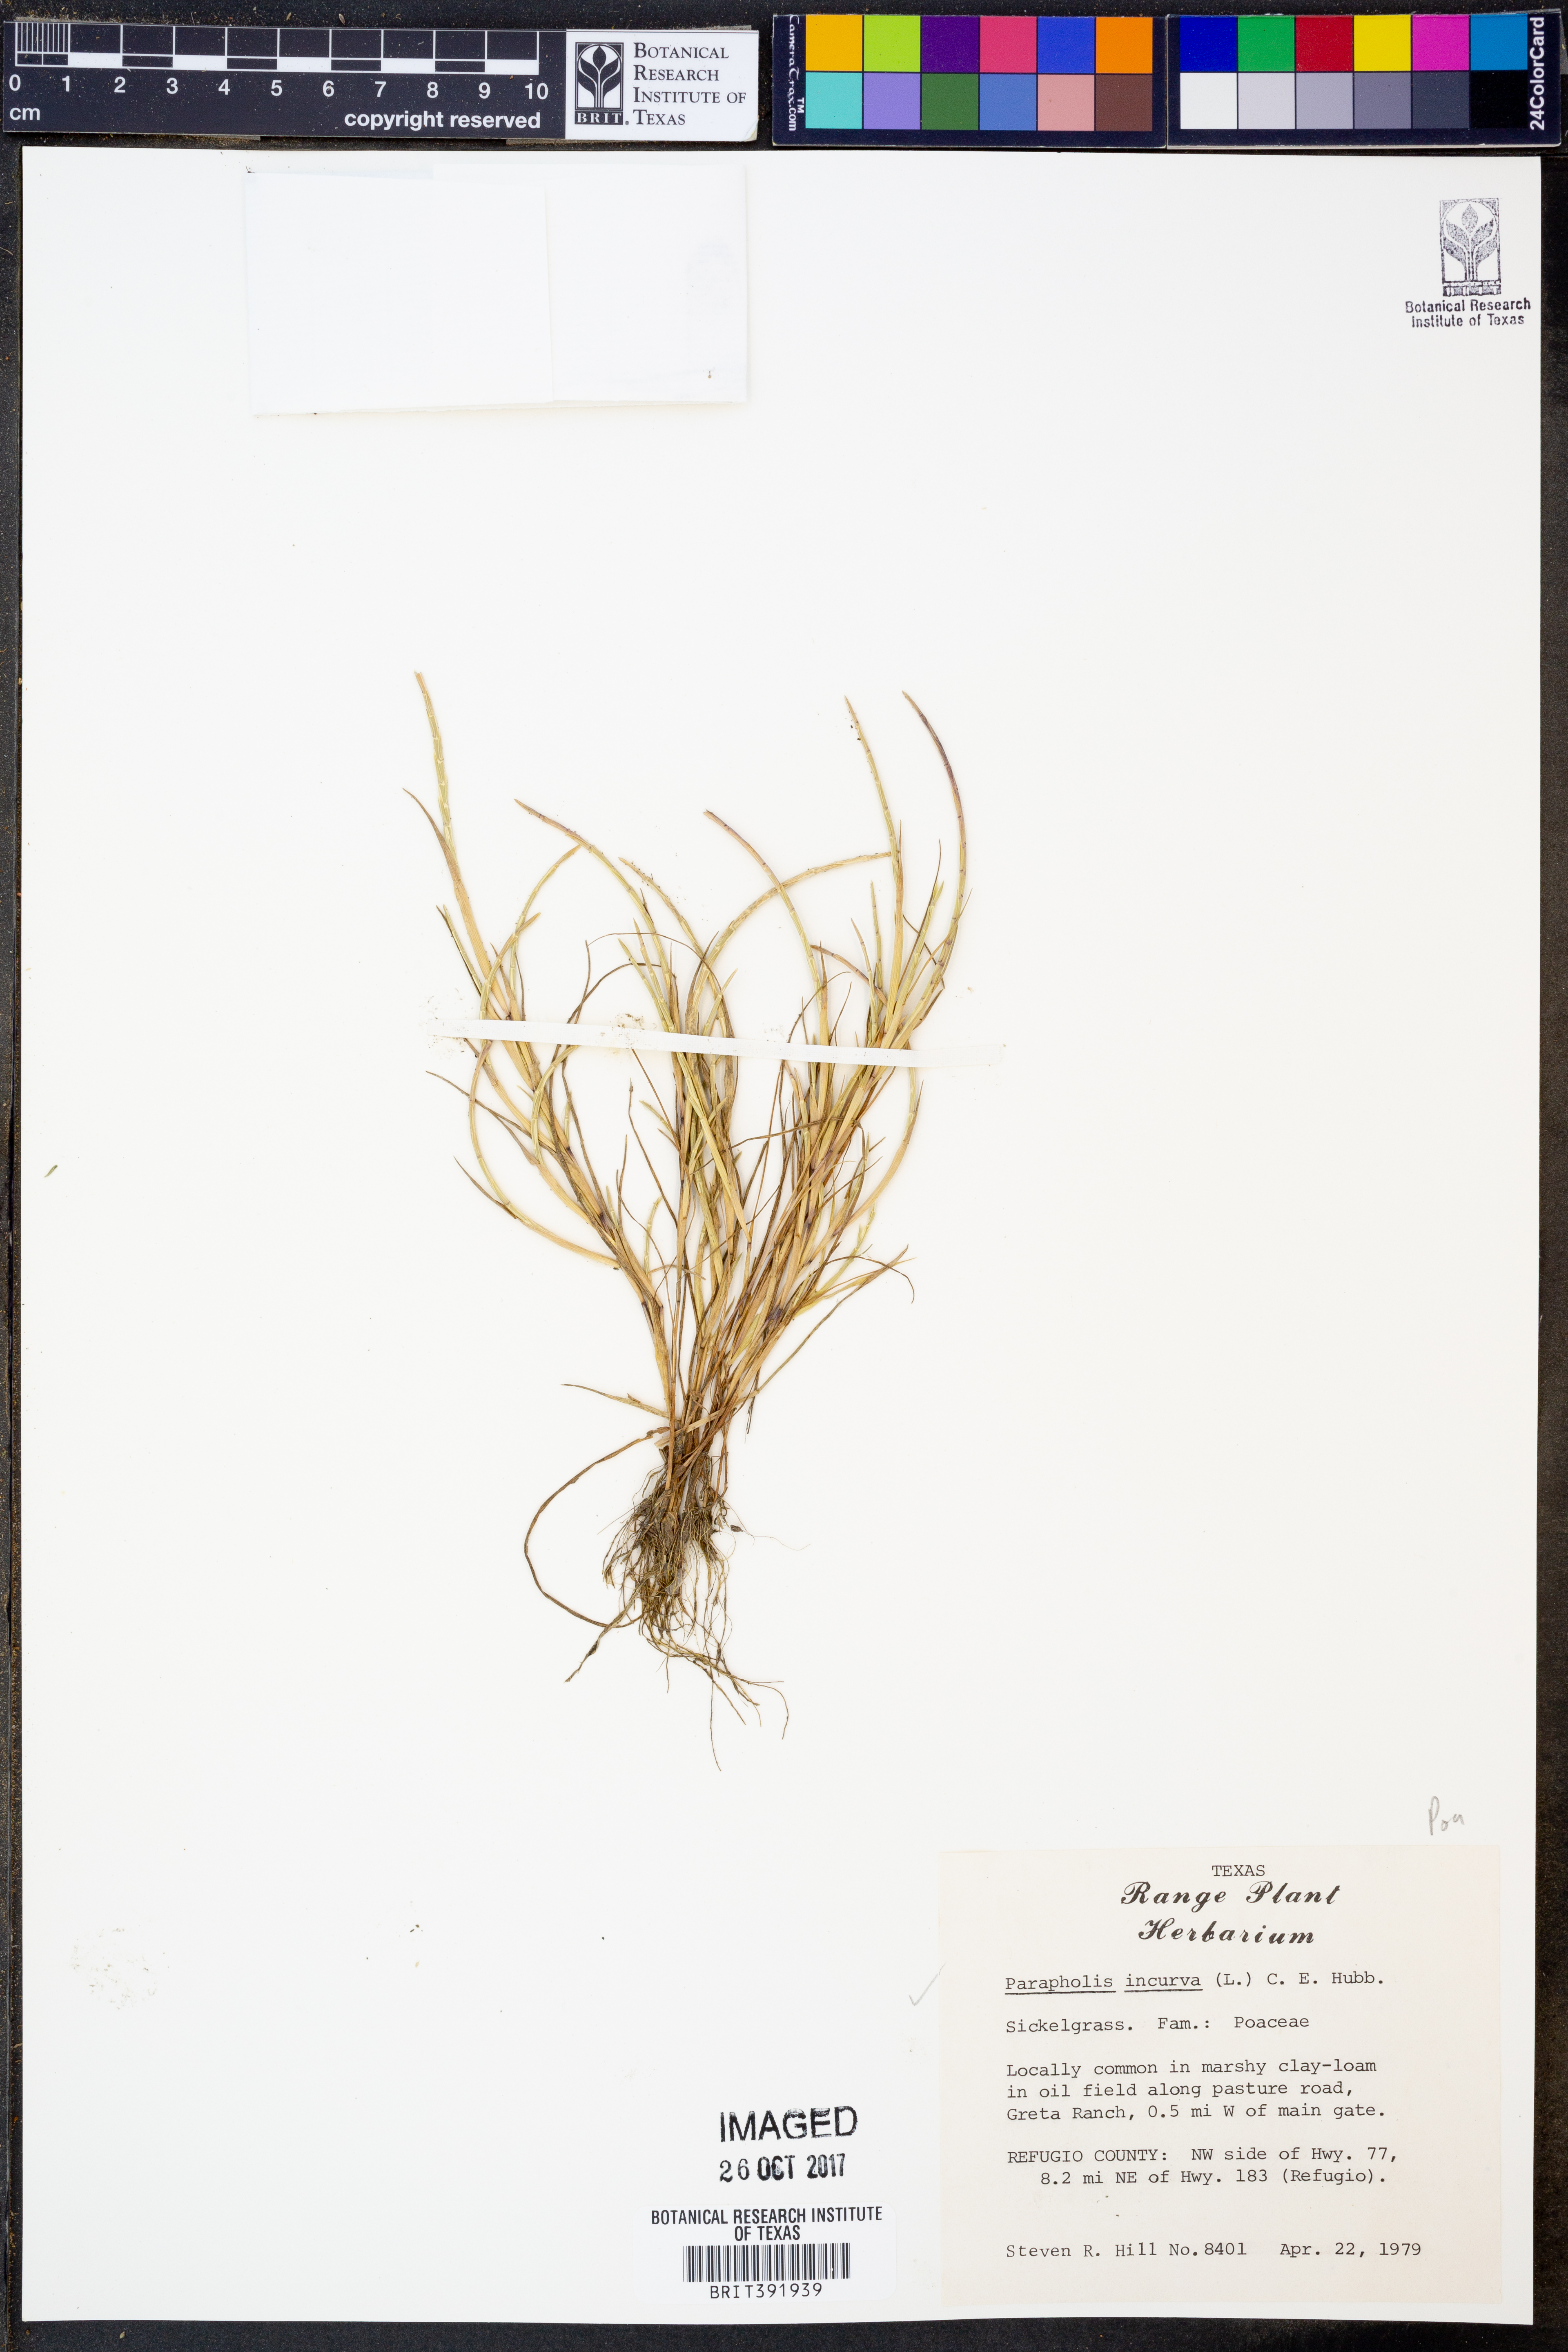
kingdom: Plantae
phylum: Tracheophyta
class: Liliopsida
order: Poales
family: Poaceae
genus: Parapholis
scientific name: Parapholis incurva
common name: Curved sicklegrass
